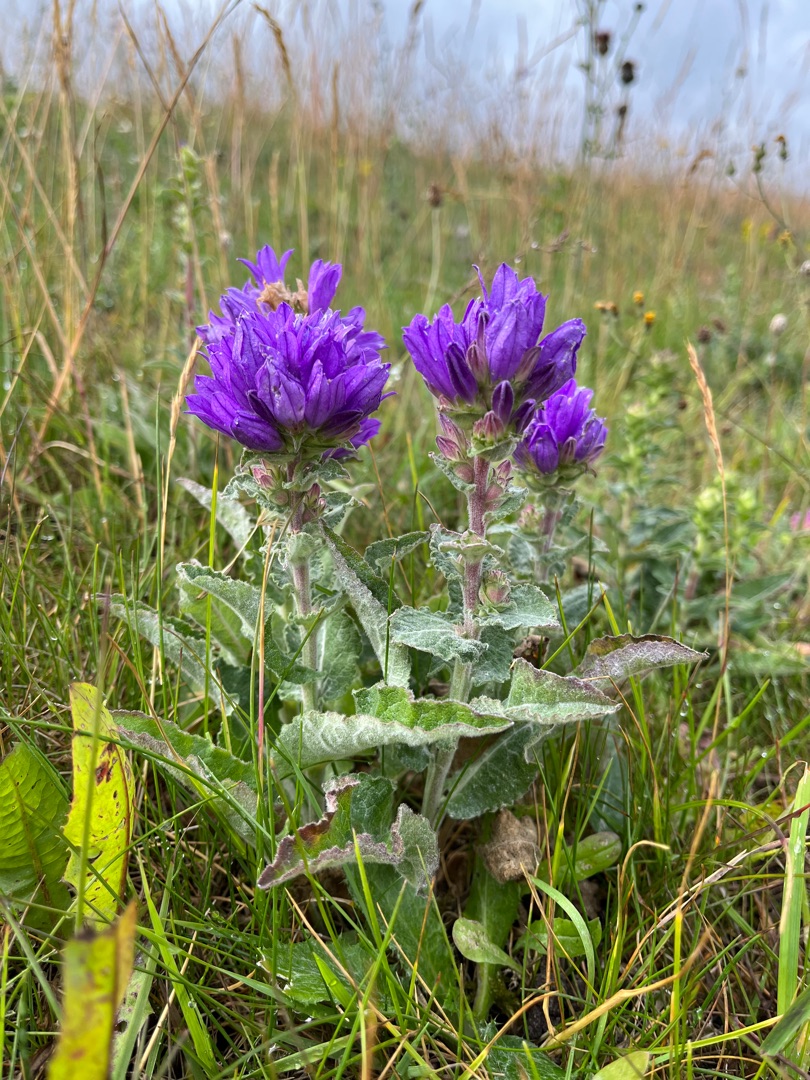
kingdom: Plantae
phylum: Tracheophyta
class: Magnoliopsida
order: Asterales
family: Campanulaceae
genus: Campanula
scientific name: Campanula glomerata
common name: Nøgleblomstret klokke
